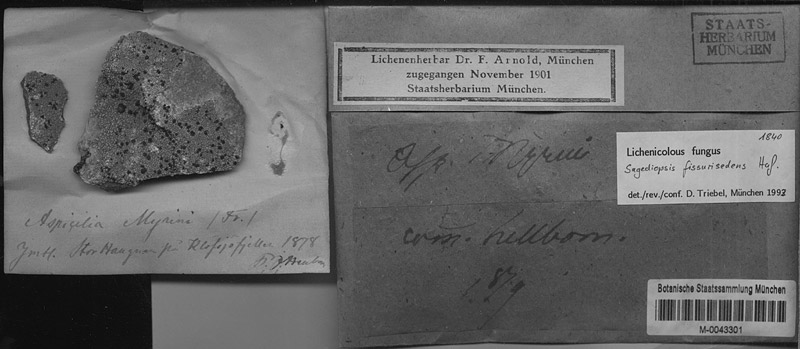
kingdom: Fungi
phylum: Ascomycota
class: Lecanoromycetes
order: Lecanorales
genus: Aspilidea
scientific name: Aspilidea myrinii
